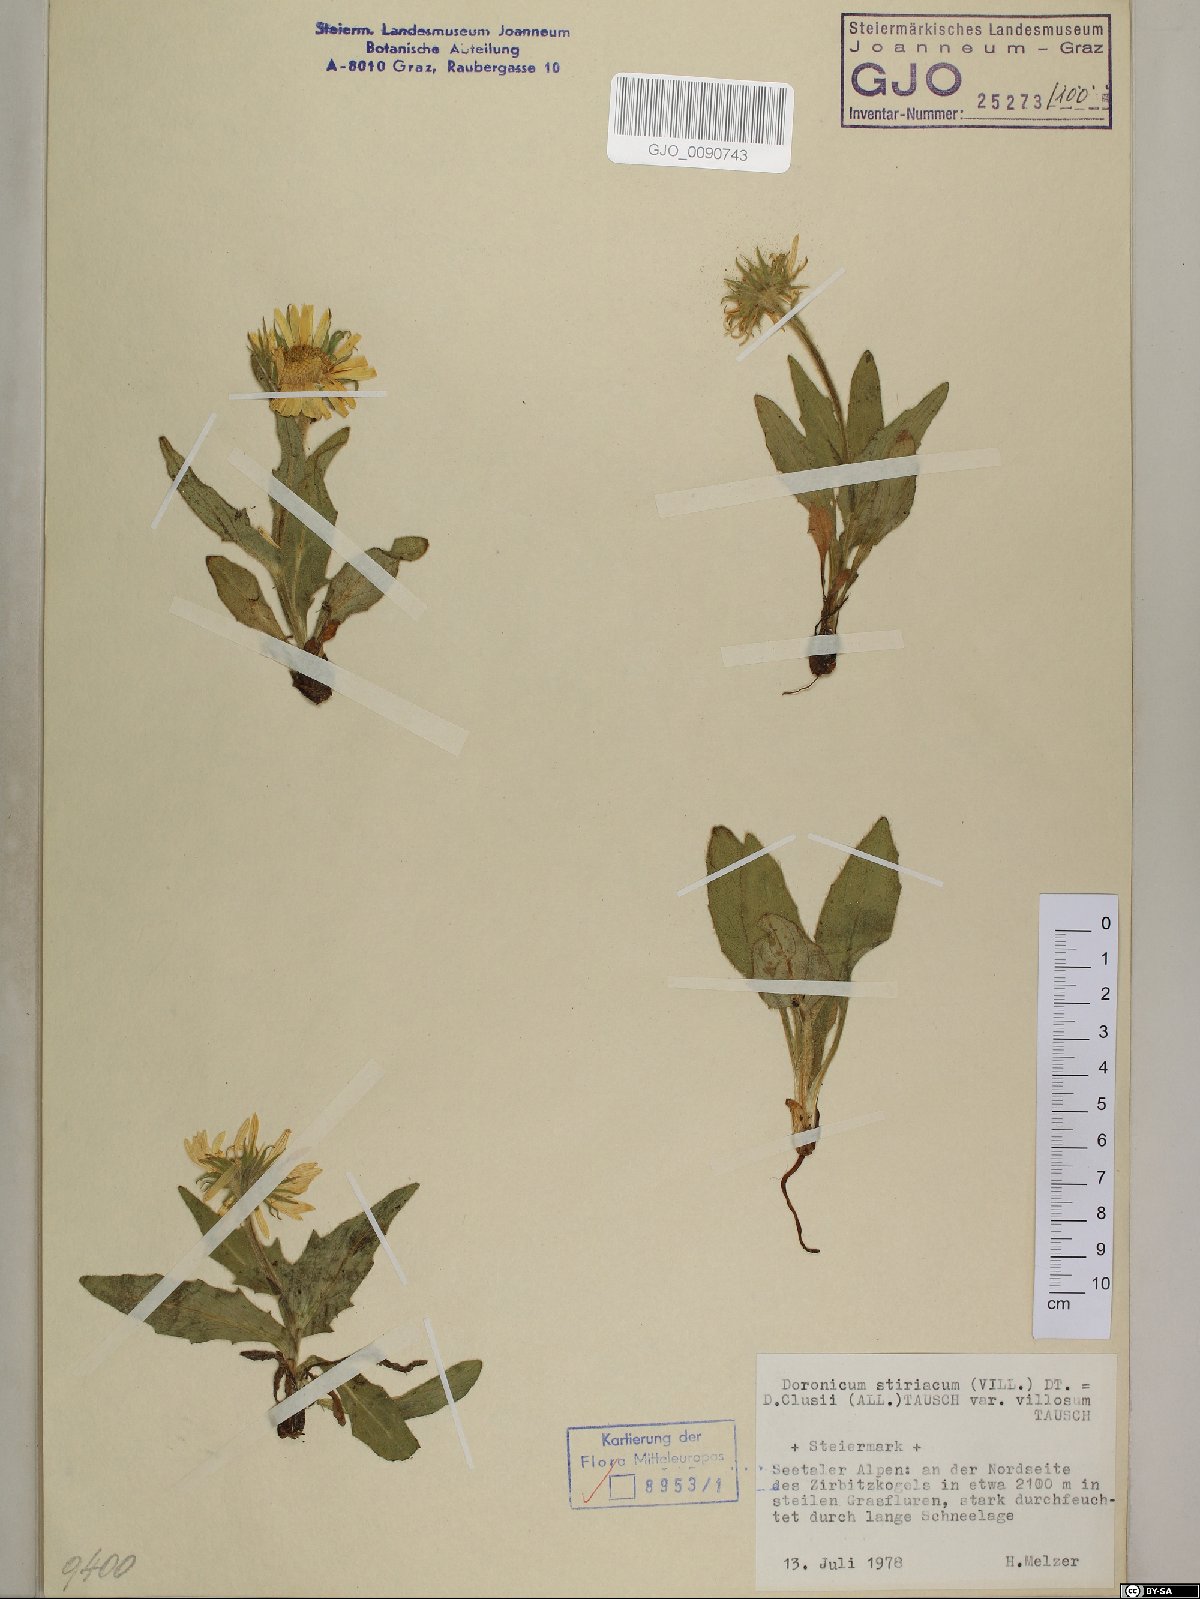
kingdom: Plantae
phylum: Tracheophyta
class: Magnoliopsida
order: Asterales
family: Asteraceae
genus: Doronicum
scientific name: Doronicum clusii
